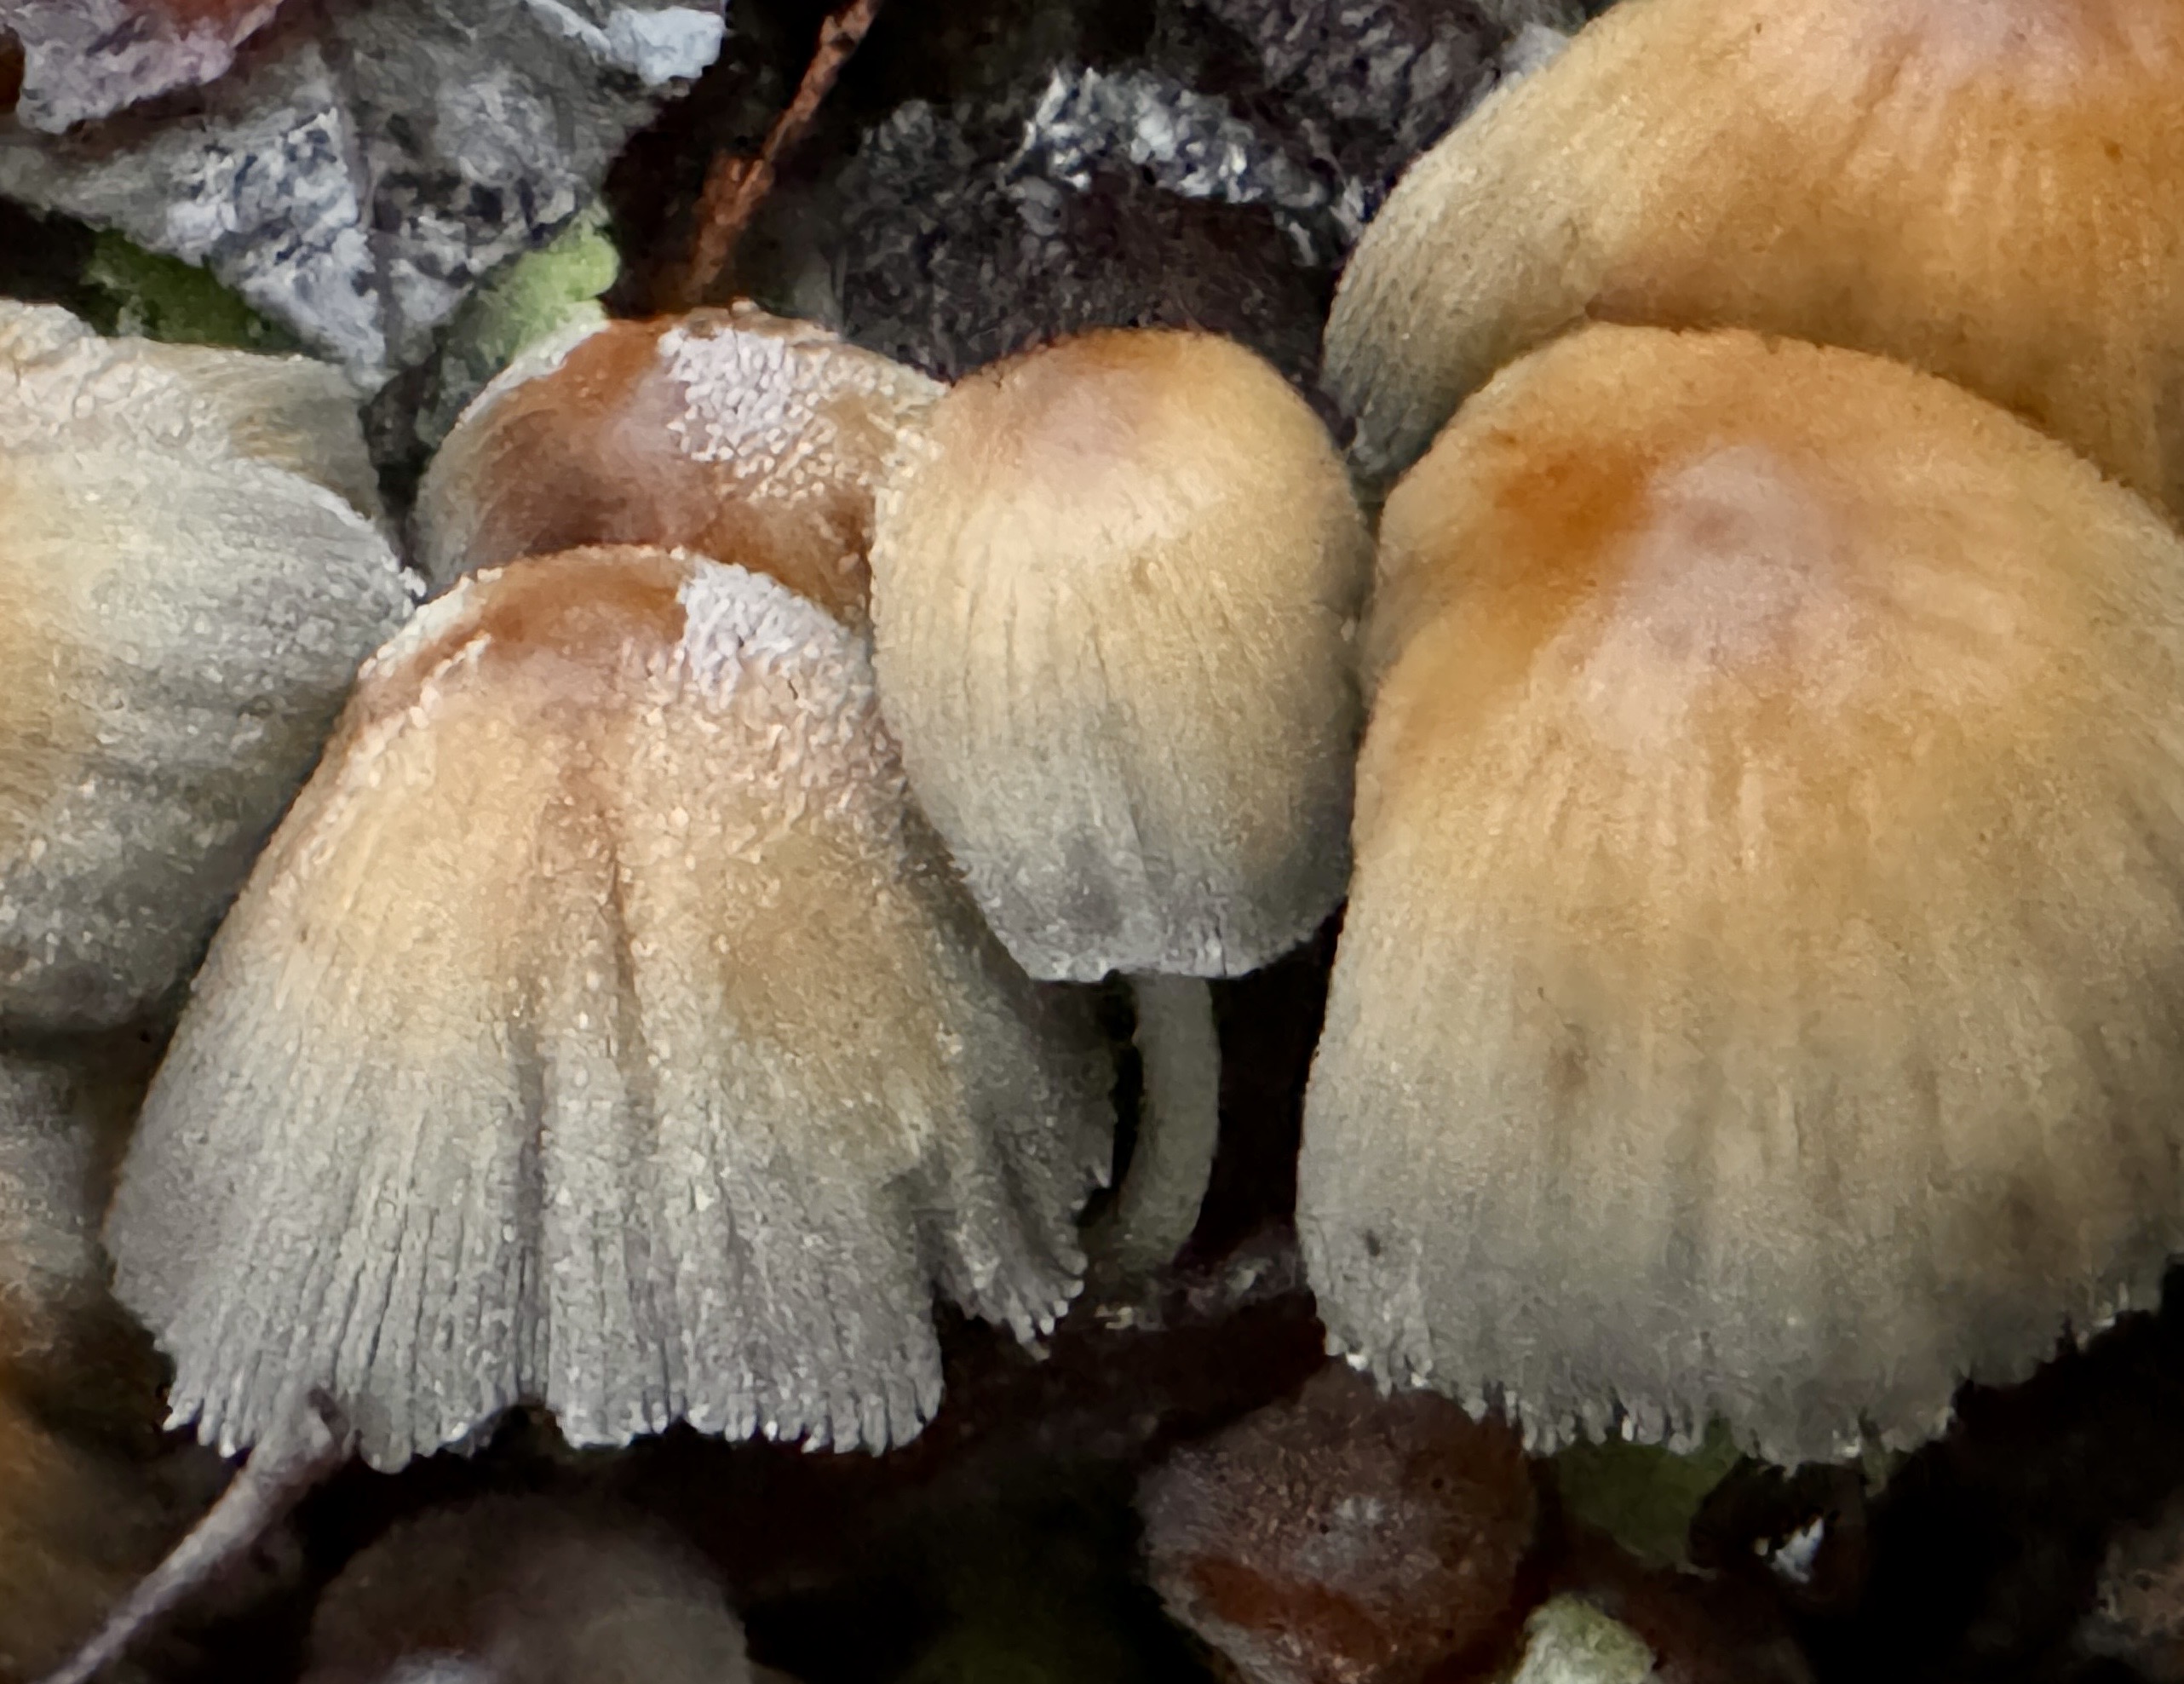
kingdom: Fungi
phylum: Basidiomycota
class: Agaricomycetes
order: Agaricales
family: Psathyrellaceae
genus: Coprinellus
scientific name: Coprinellus micaceus
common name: glimmer-blækhat
